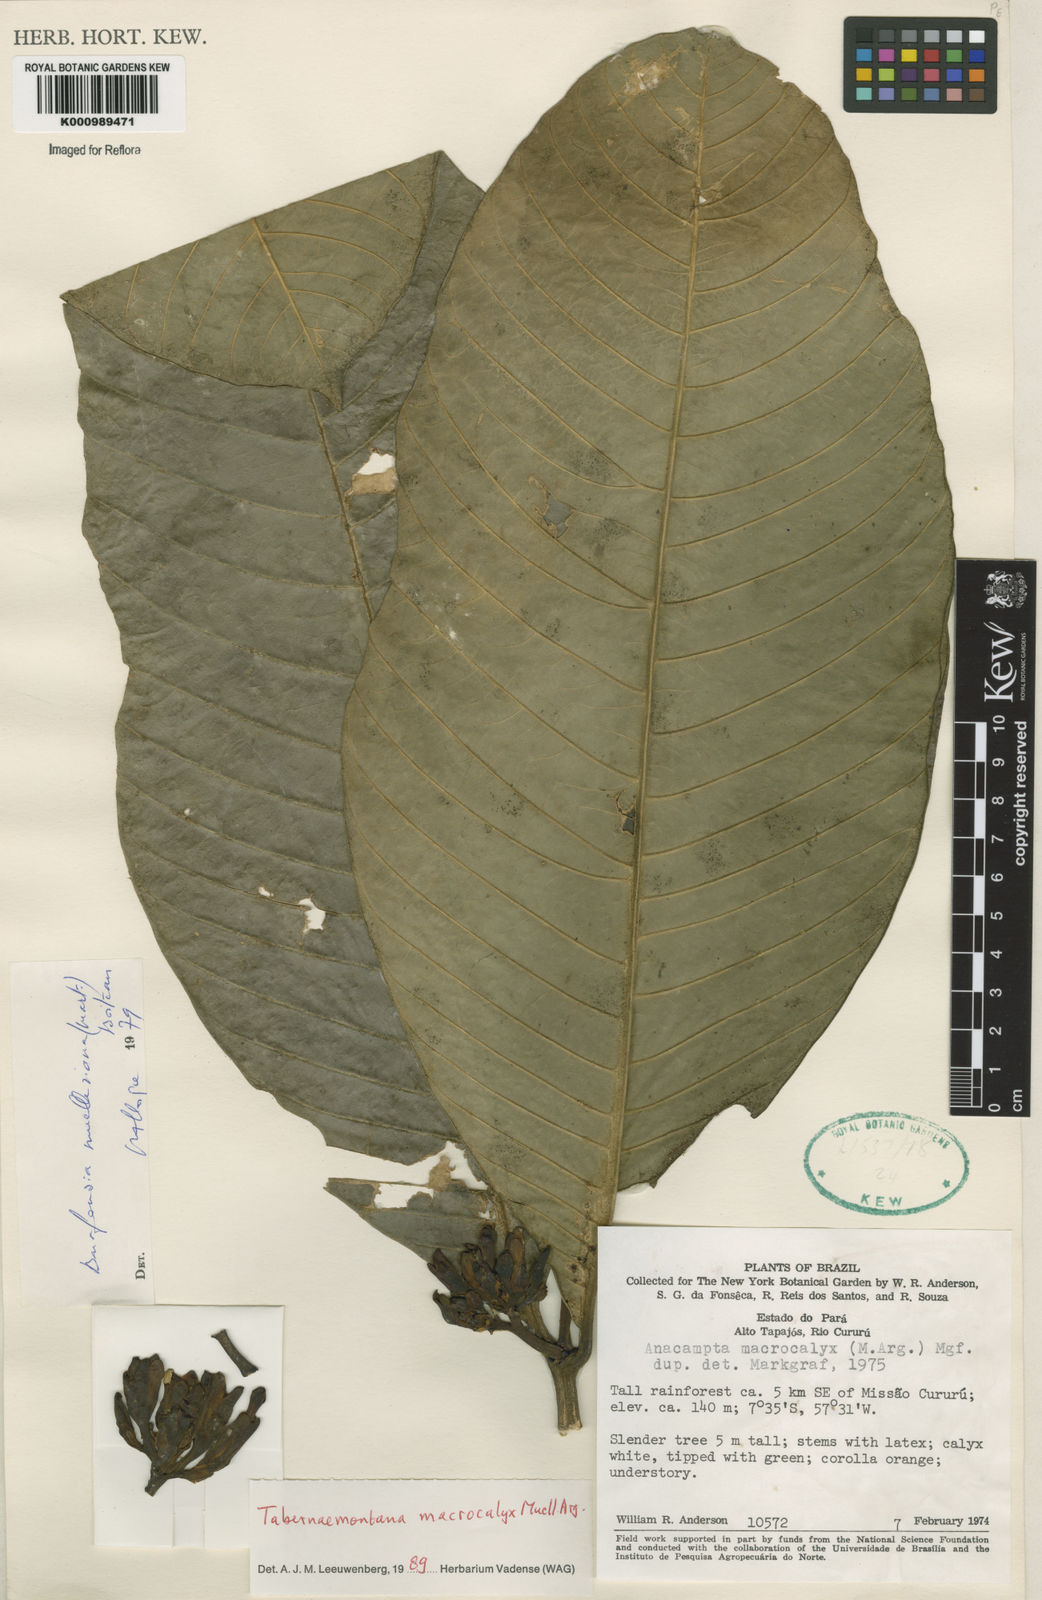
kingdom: Plantae
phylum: Tracheophyta
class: Magnoliopsida
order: Gentianales
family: Apocynaceae
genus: Tabernaemontana
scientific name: Tabernaemontana
